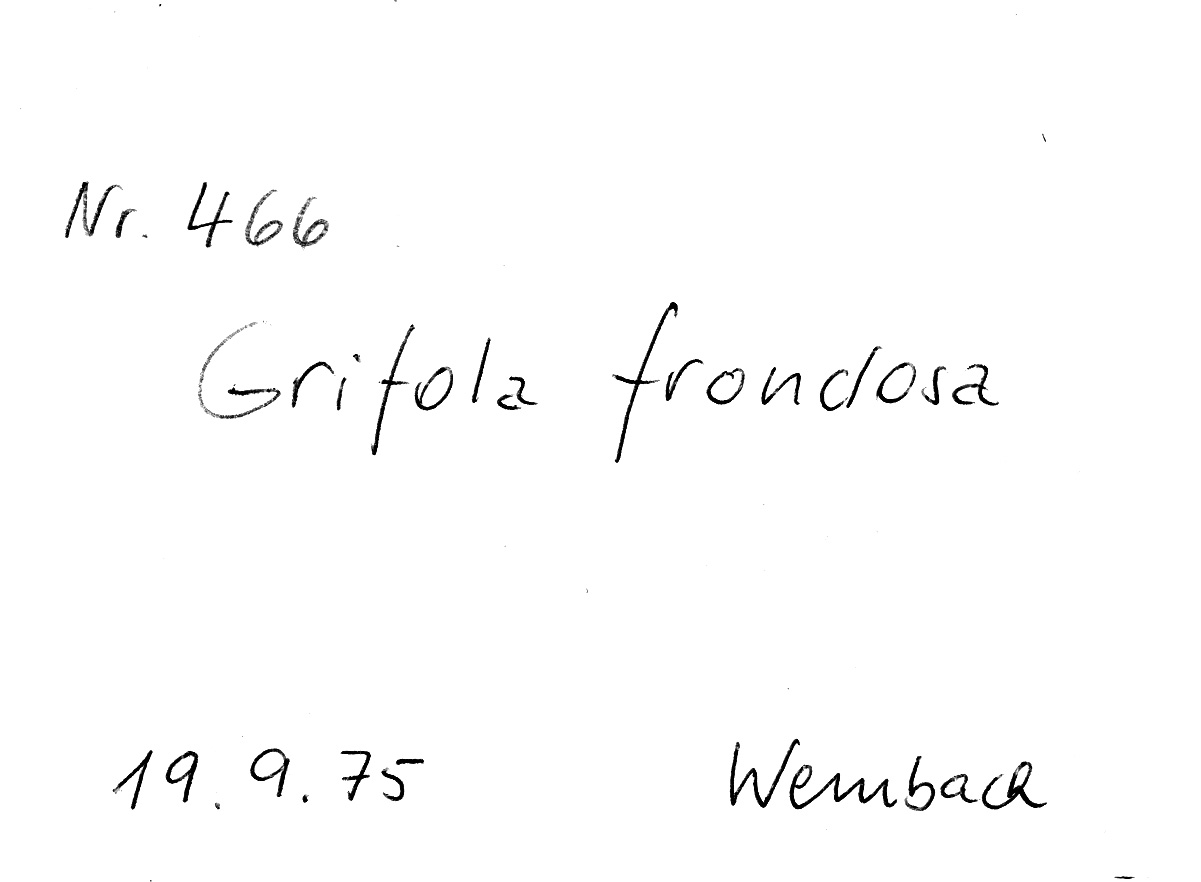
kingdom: Fungi
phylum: Basidiomycota
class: Agaricomycetes
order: Polyporales
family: Phanerochaetaceae
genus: Bjerkandera
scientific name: Bjerkandera fumosa
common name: Big smoky bracket
